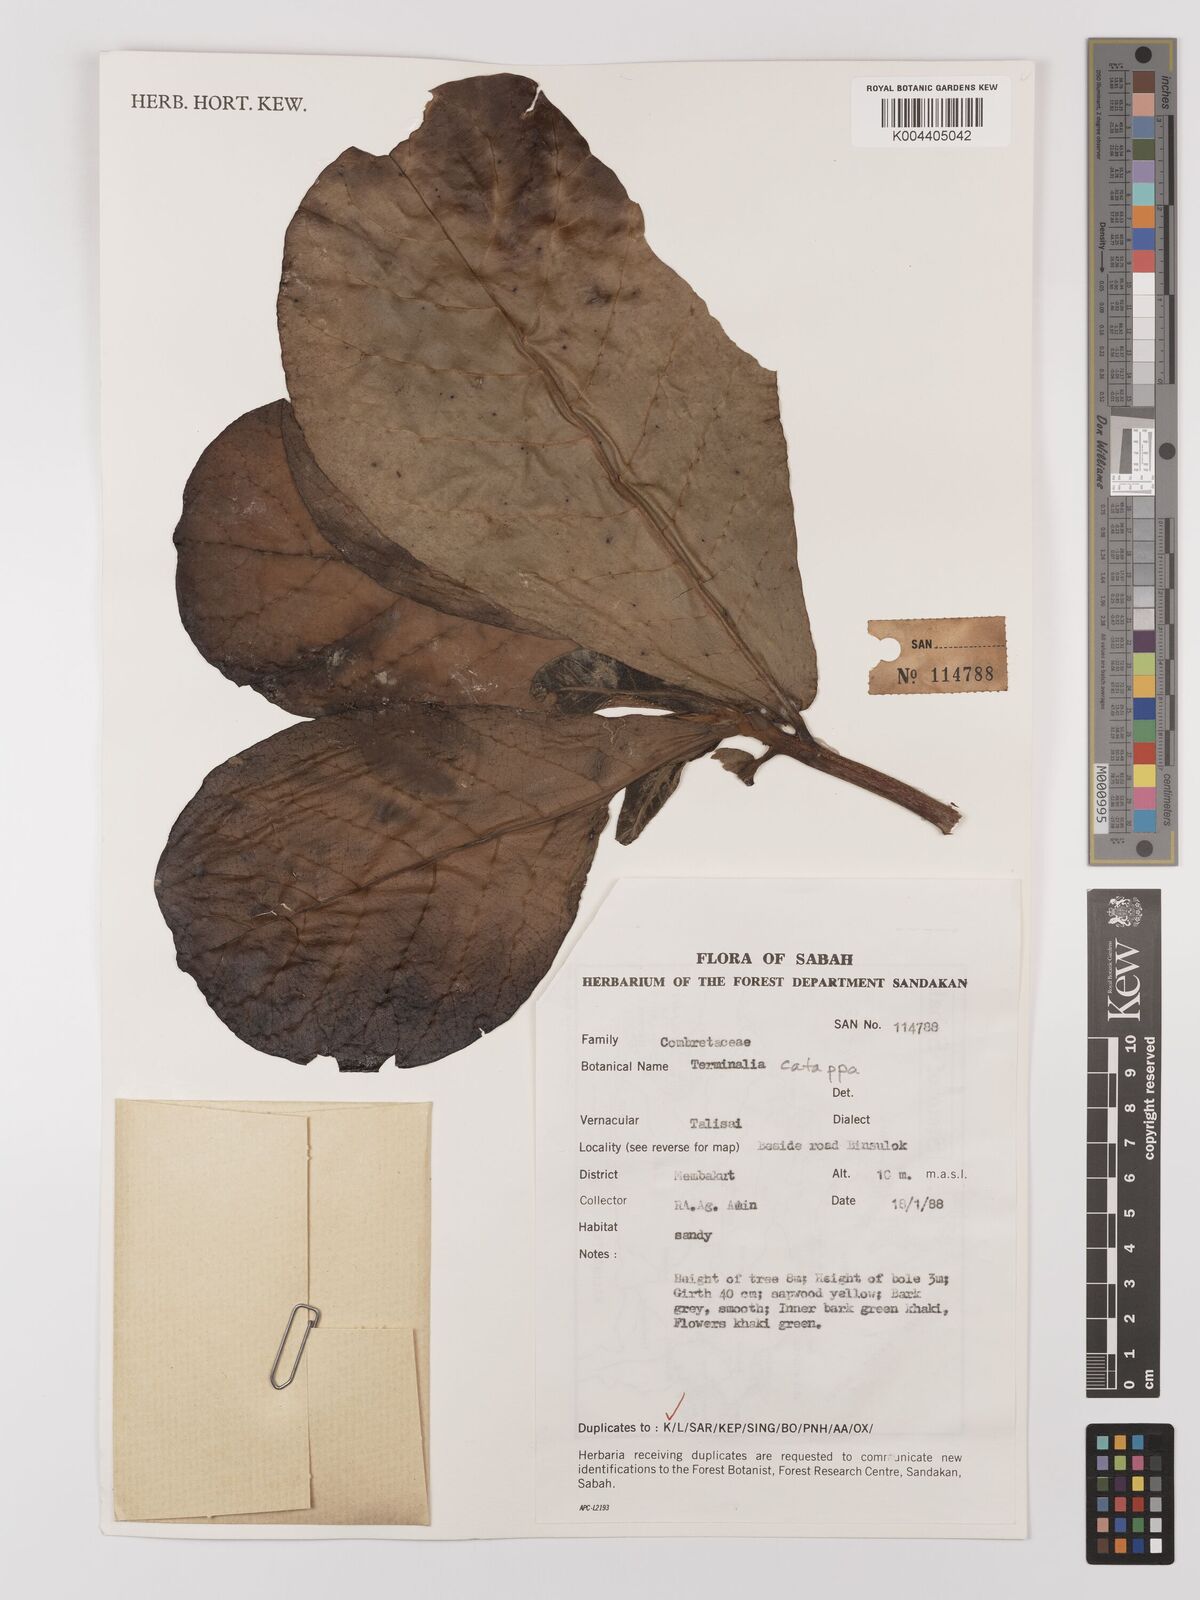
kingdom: Plantae
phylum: Tracheophyta
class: Magnoliopsida
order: Myrtales
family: Combretaceae
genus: Terminalia
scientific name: Terminalia catappa
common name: Tropical almond
